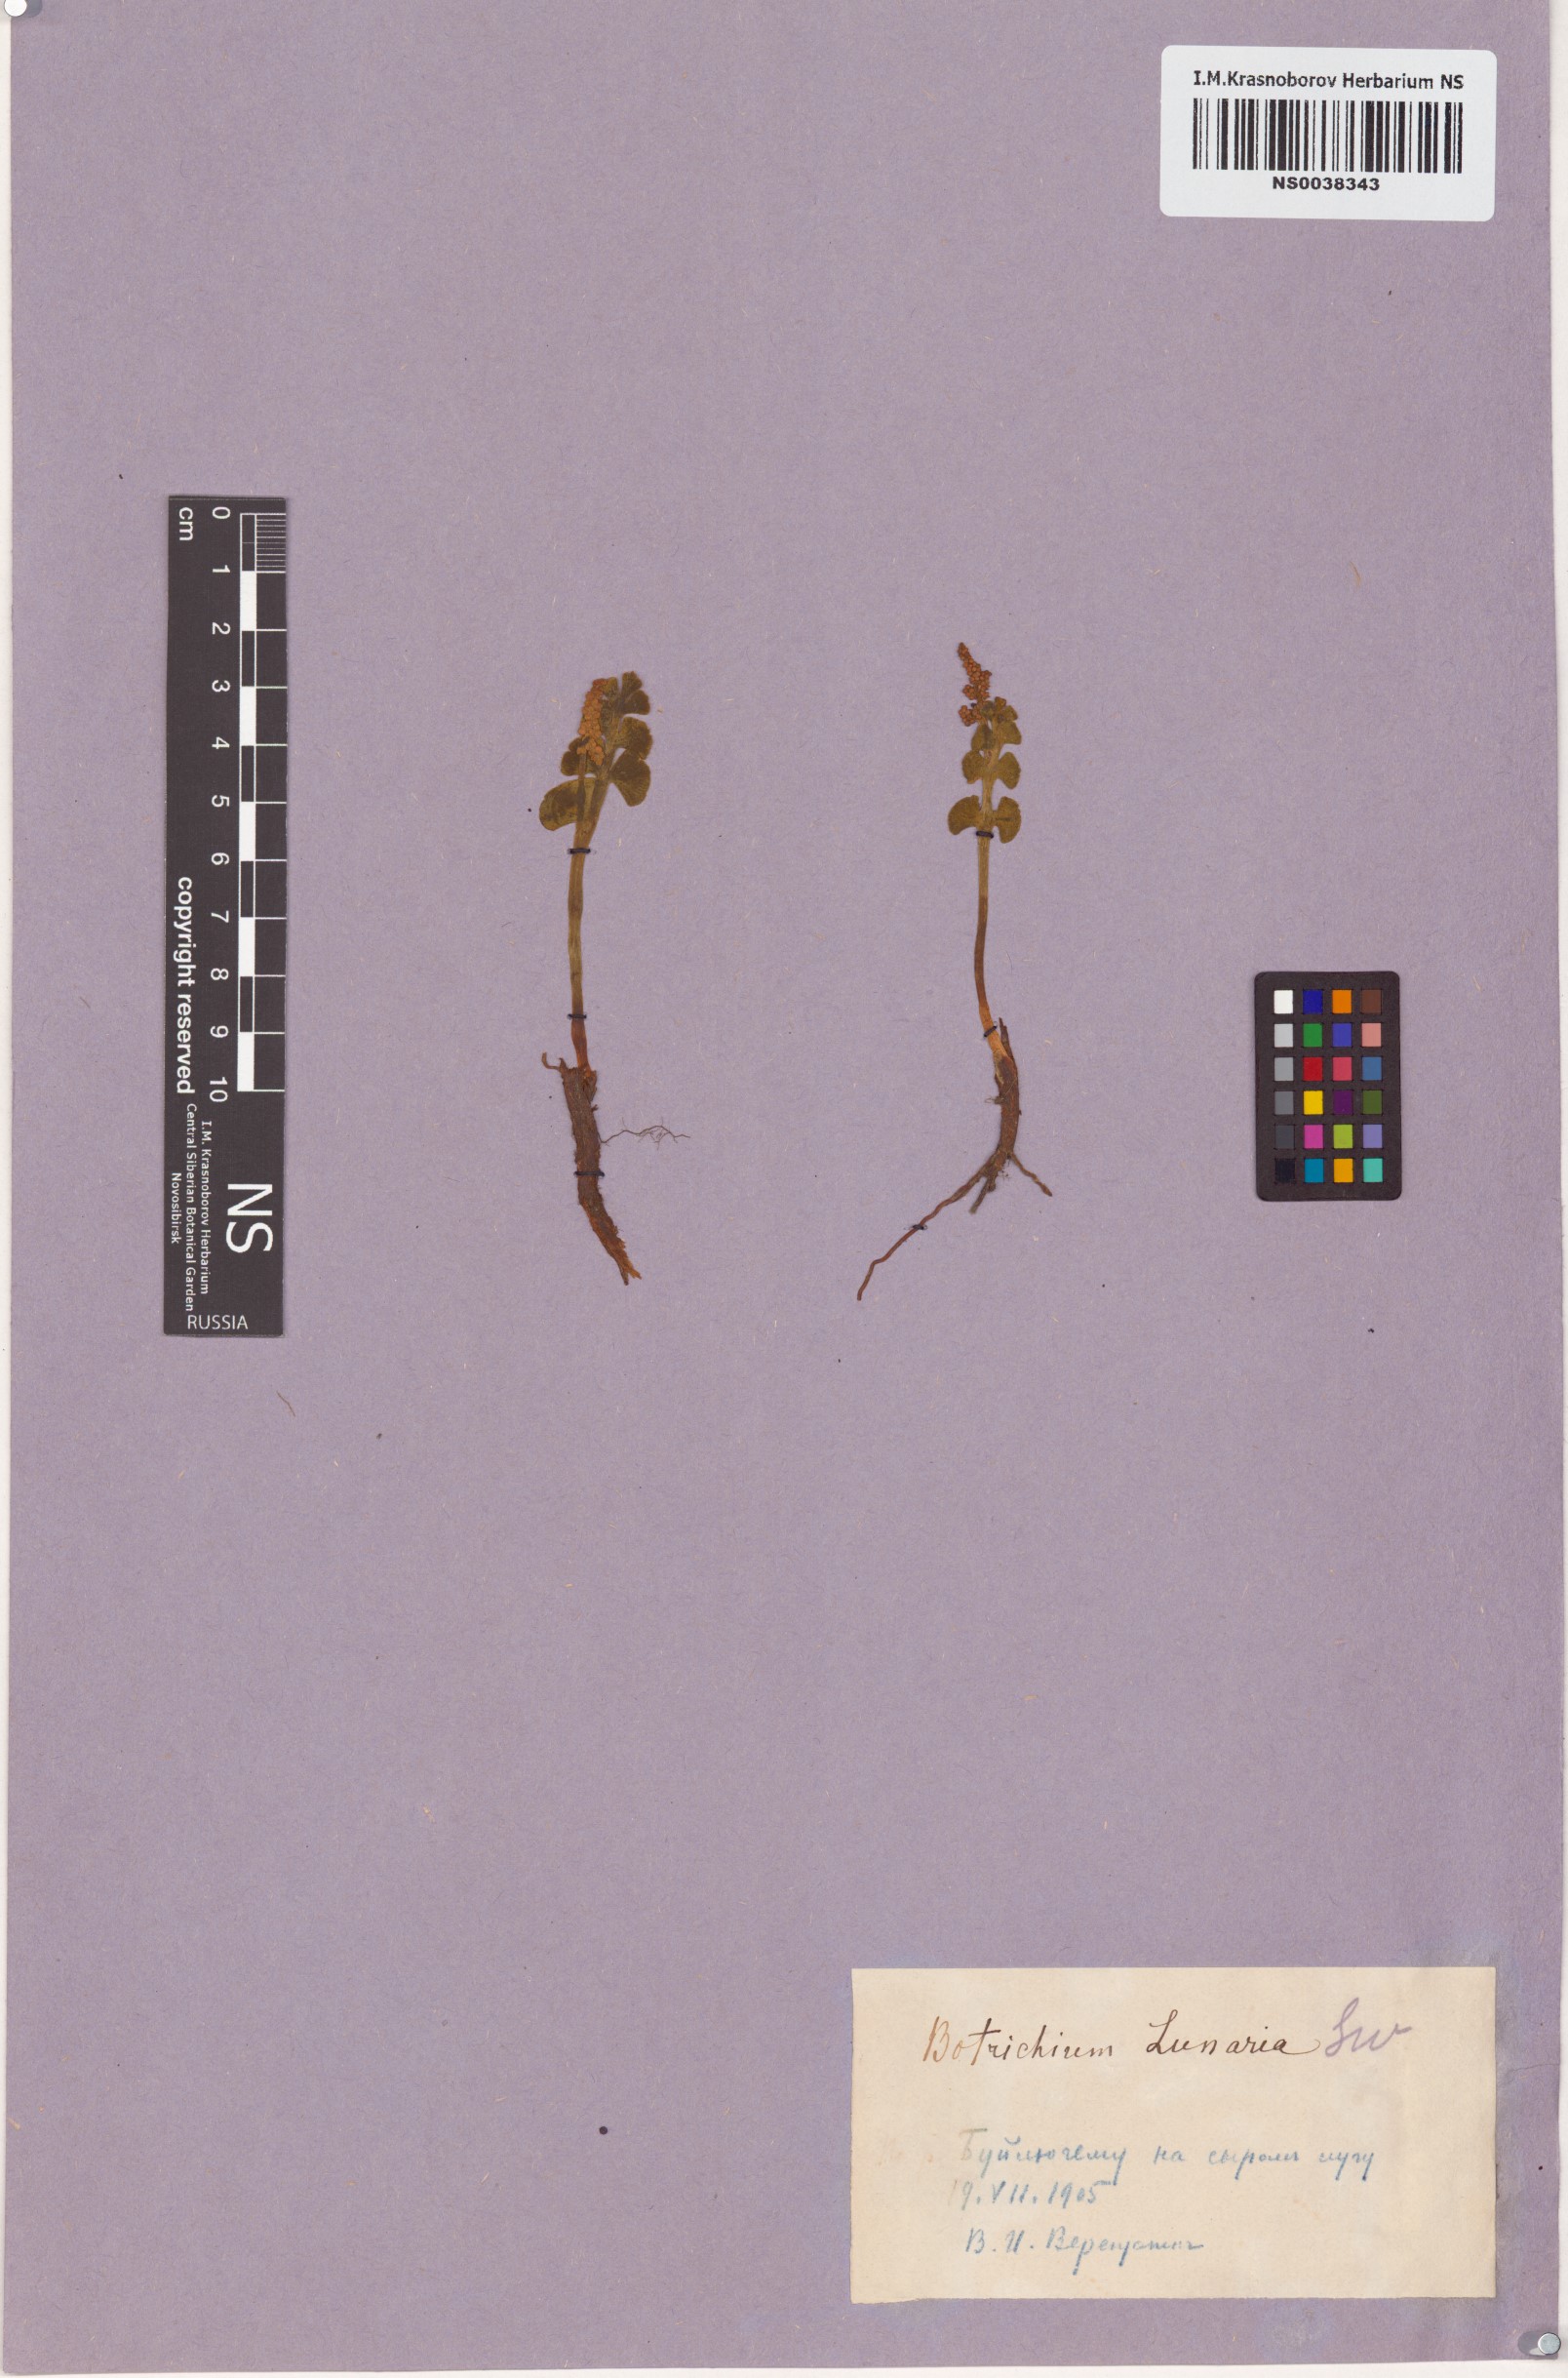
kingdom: Plantae
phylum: Tracheophyta
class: Polypodiopsida
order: Ophioglossales
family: Ophioglossaceae
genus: Botrychium
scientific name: Botrychium lunaria
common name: Moonwort
